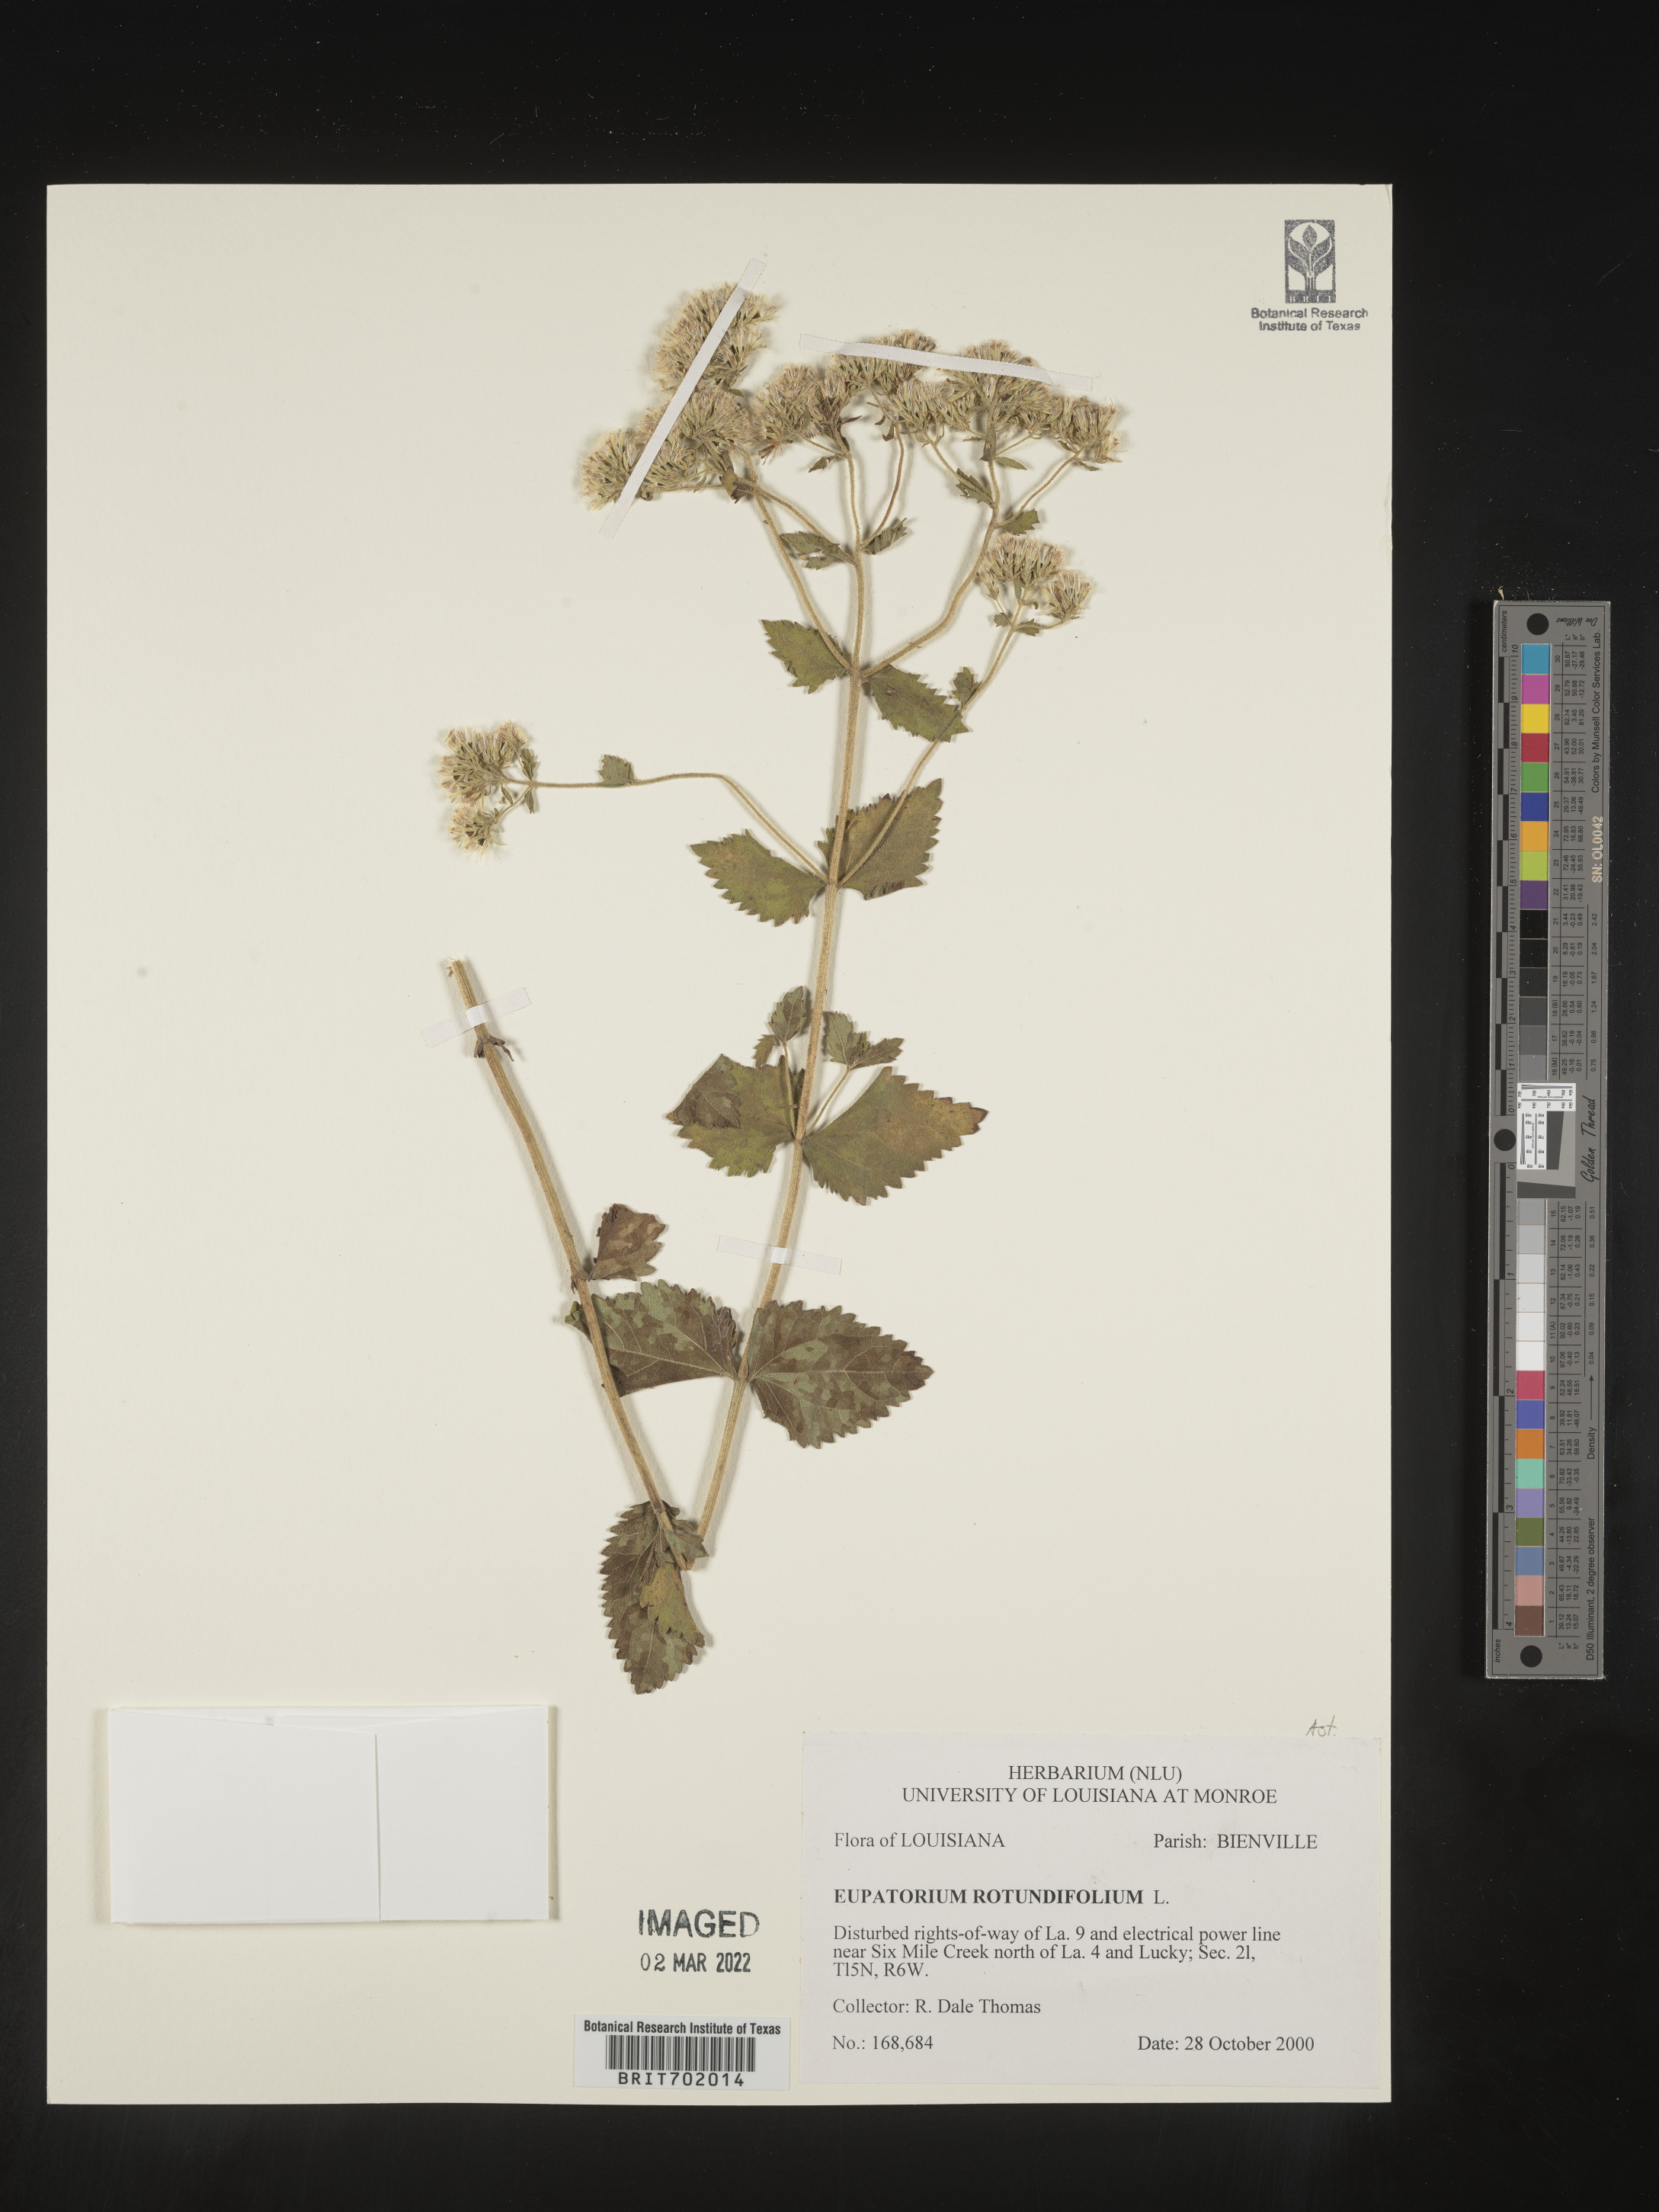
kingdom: Plantae
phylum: Tracheophyta
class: Magnoliopsida
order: Asterales
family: Asteraceae
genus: Eupatorium
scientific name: Eupatorium rotundifolium
